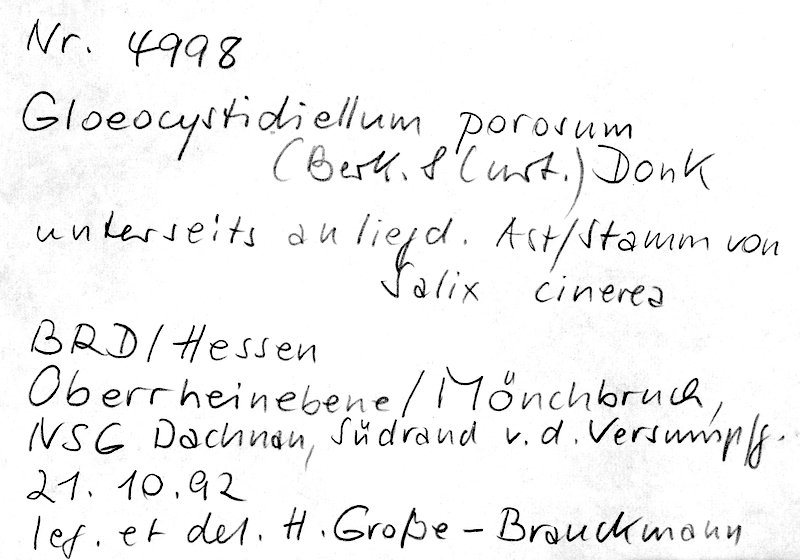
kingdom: Fungi
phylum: Basidiomycota
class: Agaricomycetes
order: Russulales
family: Stereaceae
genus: Gloeocystidiellum
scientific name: Gloeocystidiellum porosum
